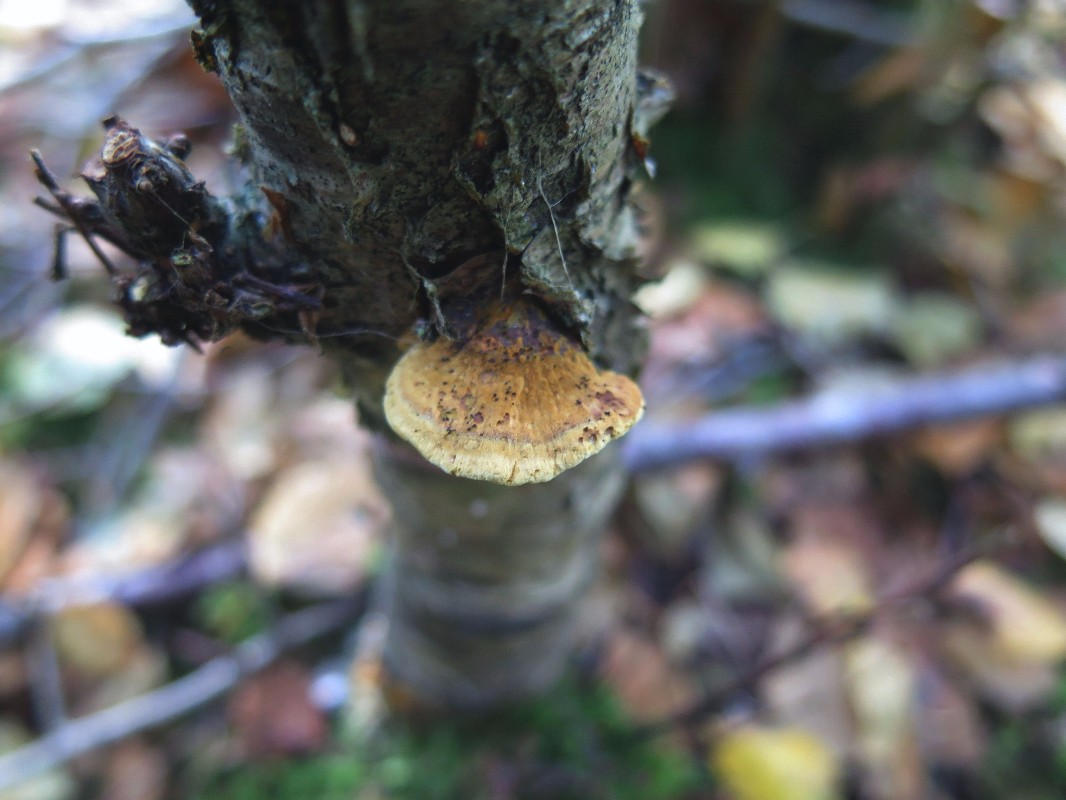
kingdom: Fungi
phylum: Basidiomycota
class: Agaricomycetes
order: Hymenochaetales
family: Hymenochaetaceae
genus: Xanthoporia
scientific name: Xanthoporia radiata
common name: elle-spejlporesvamp
